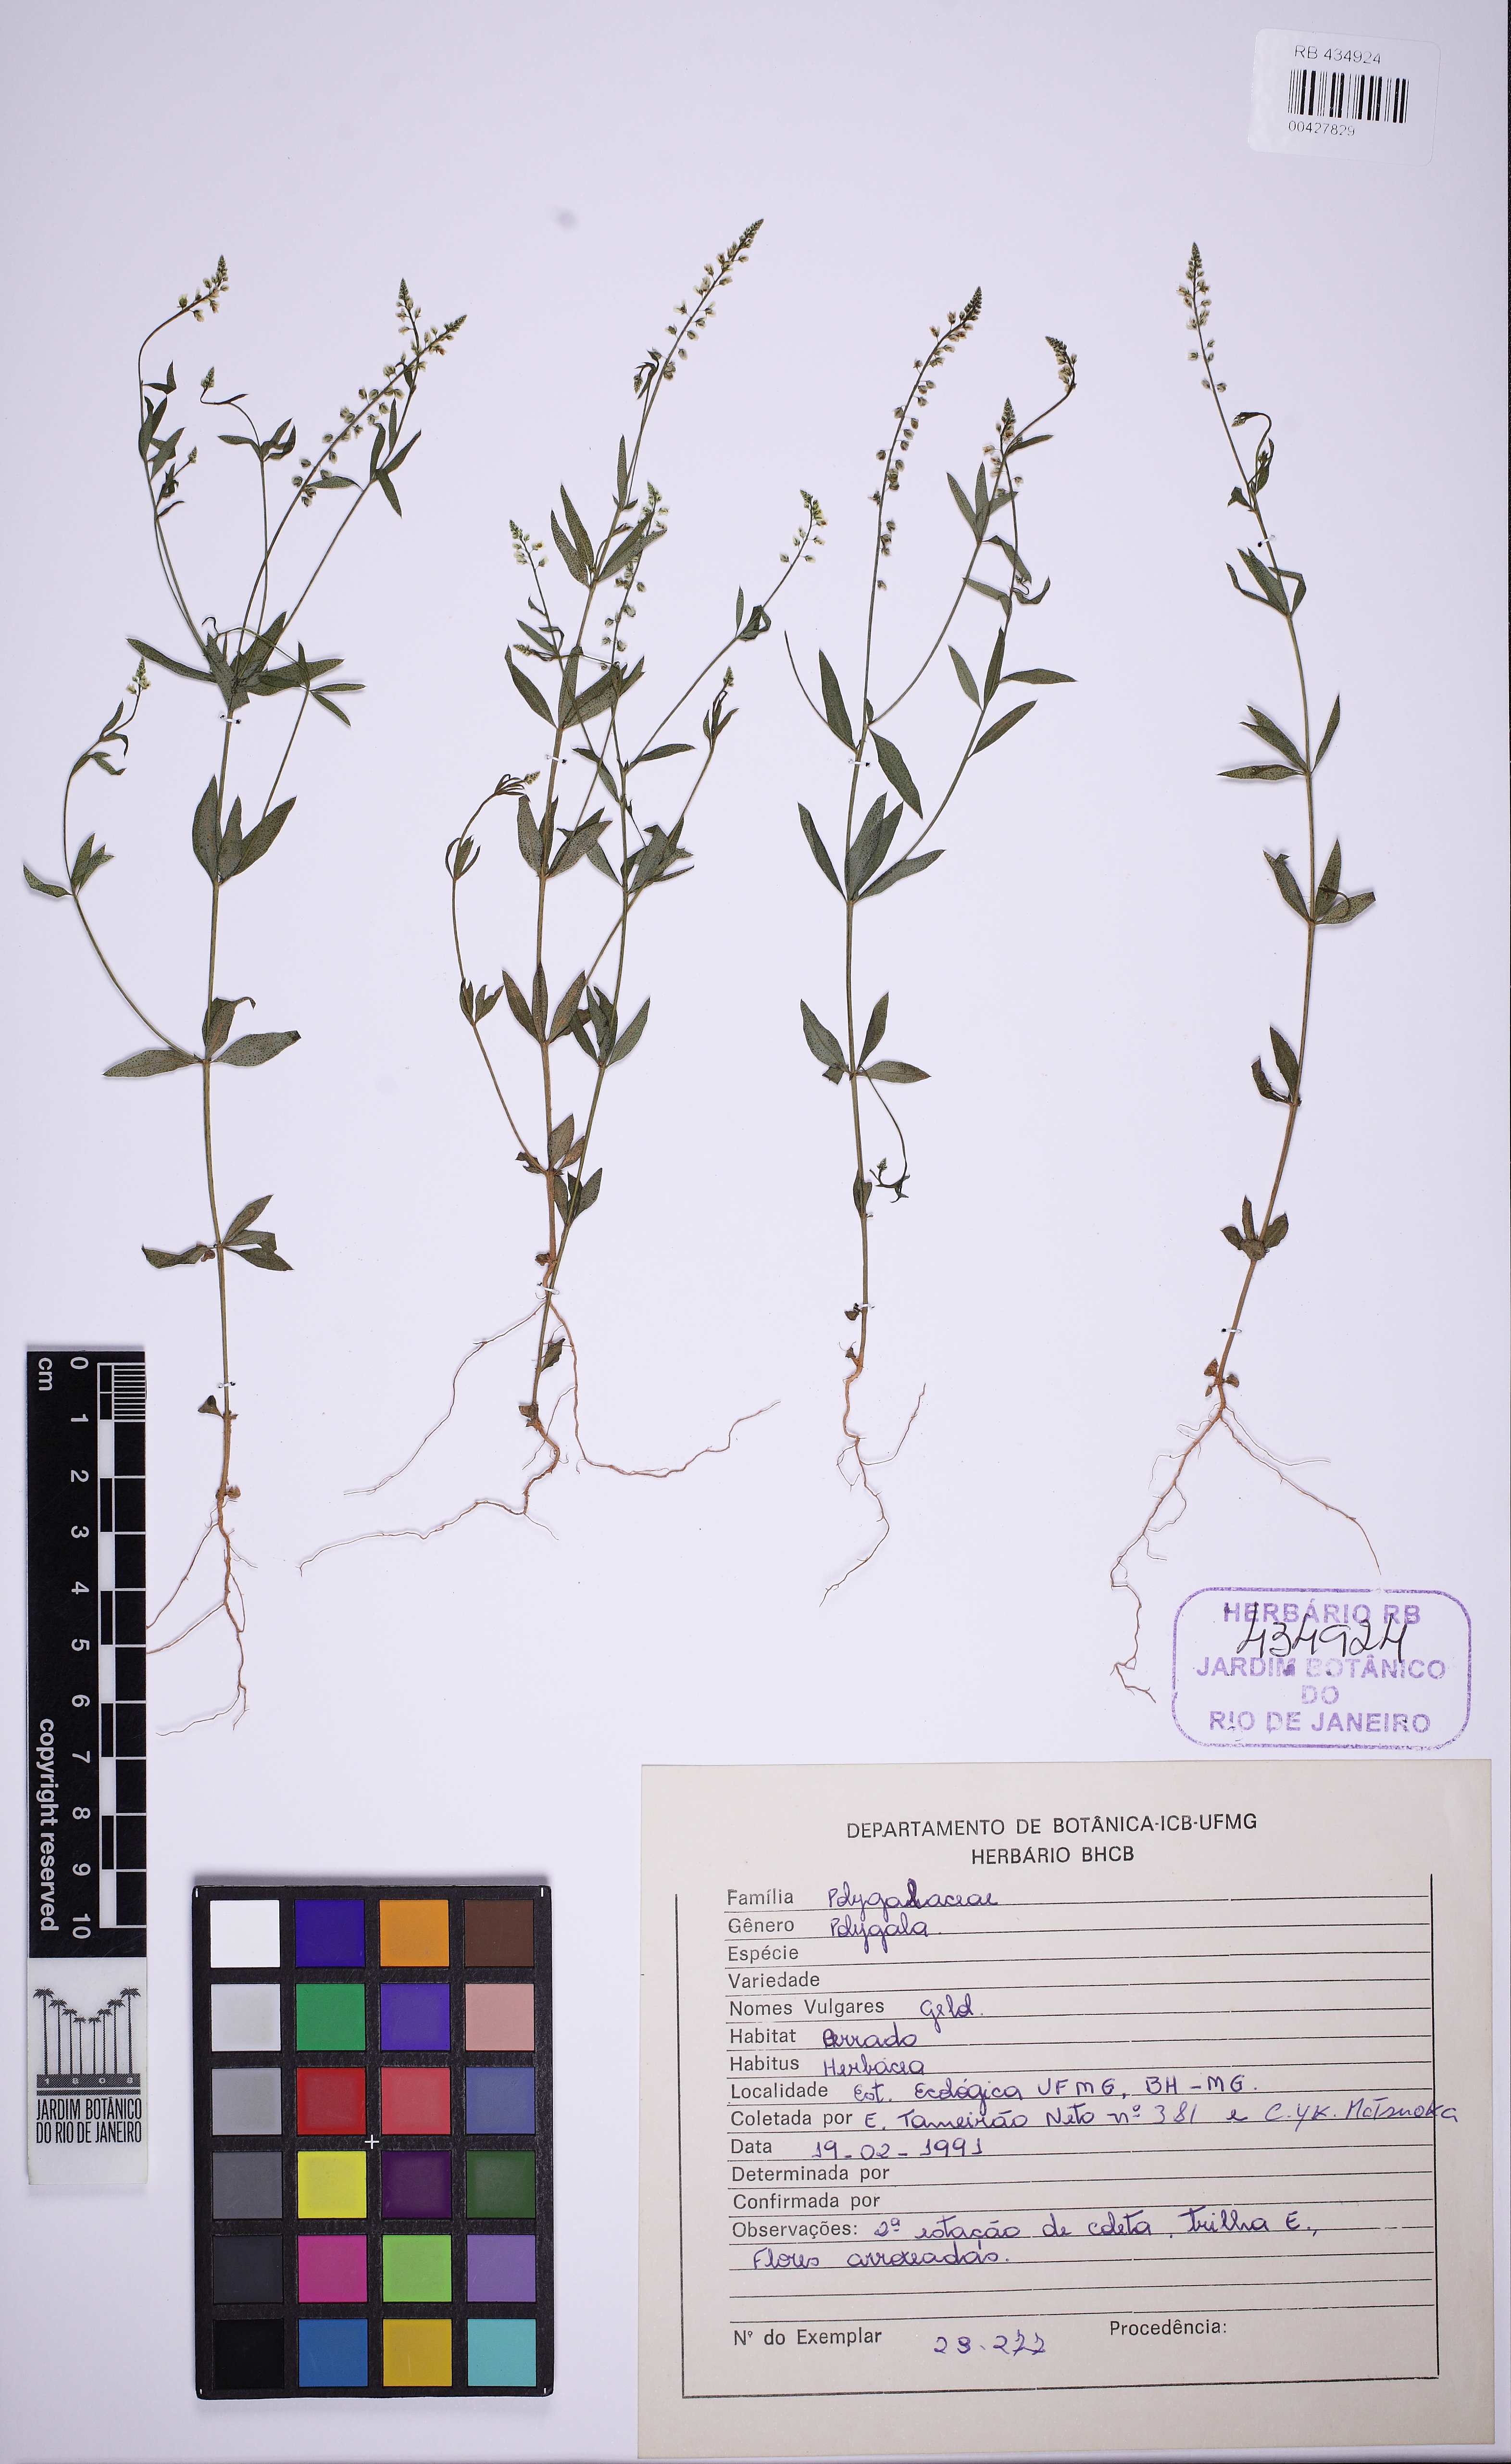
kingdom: Plantae
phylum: Tracheophyta
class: Magnoliopsida
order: Fabales
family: Polygalaceae
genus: Polygala
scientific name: Polygala galioides
